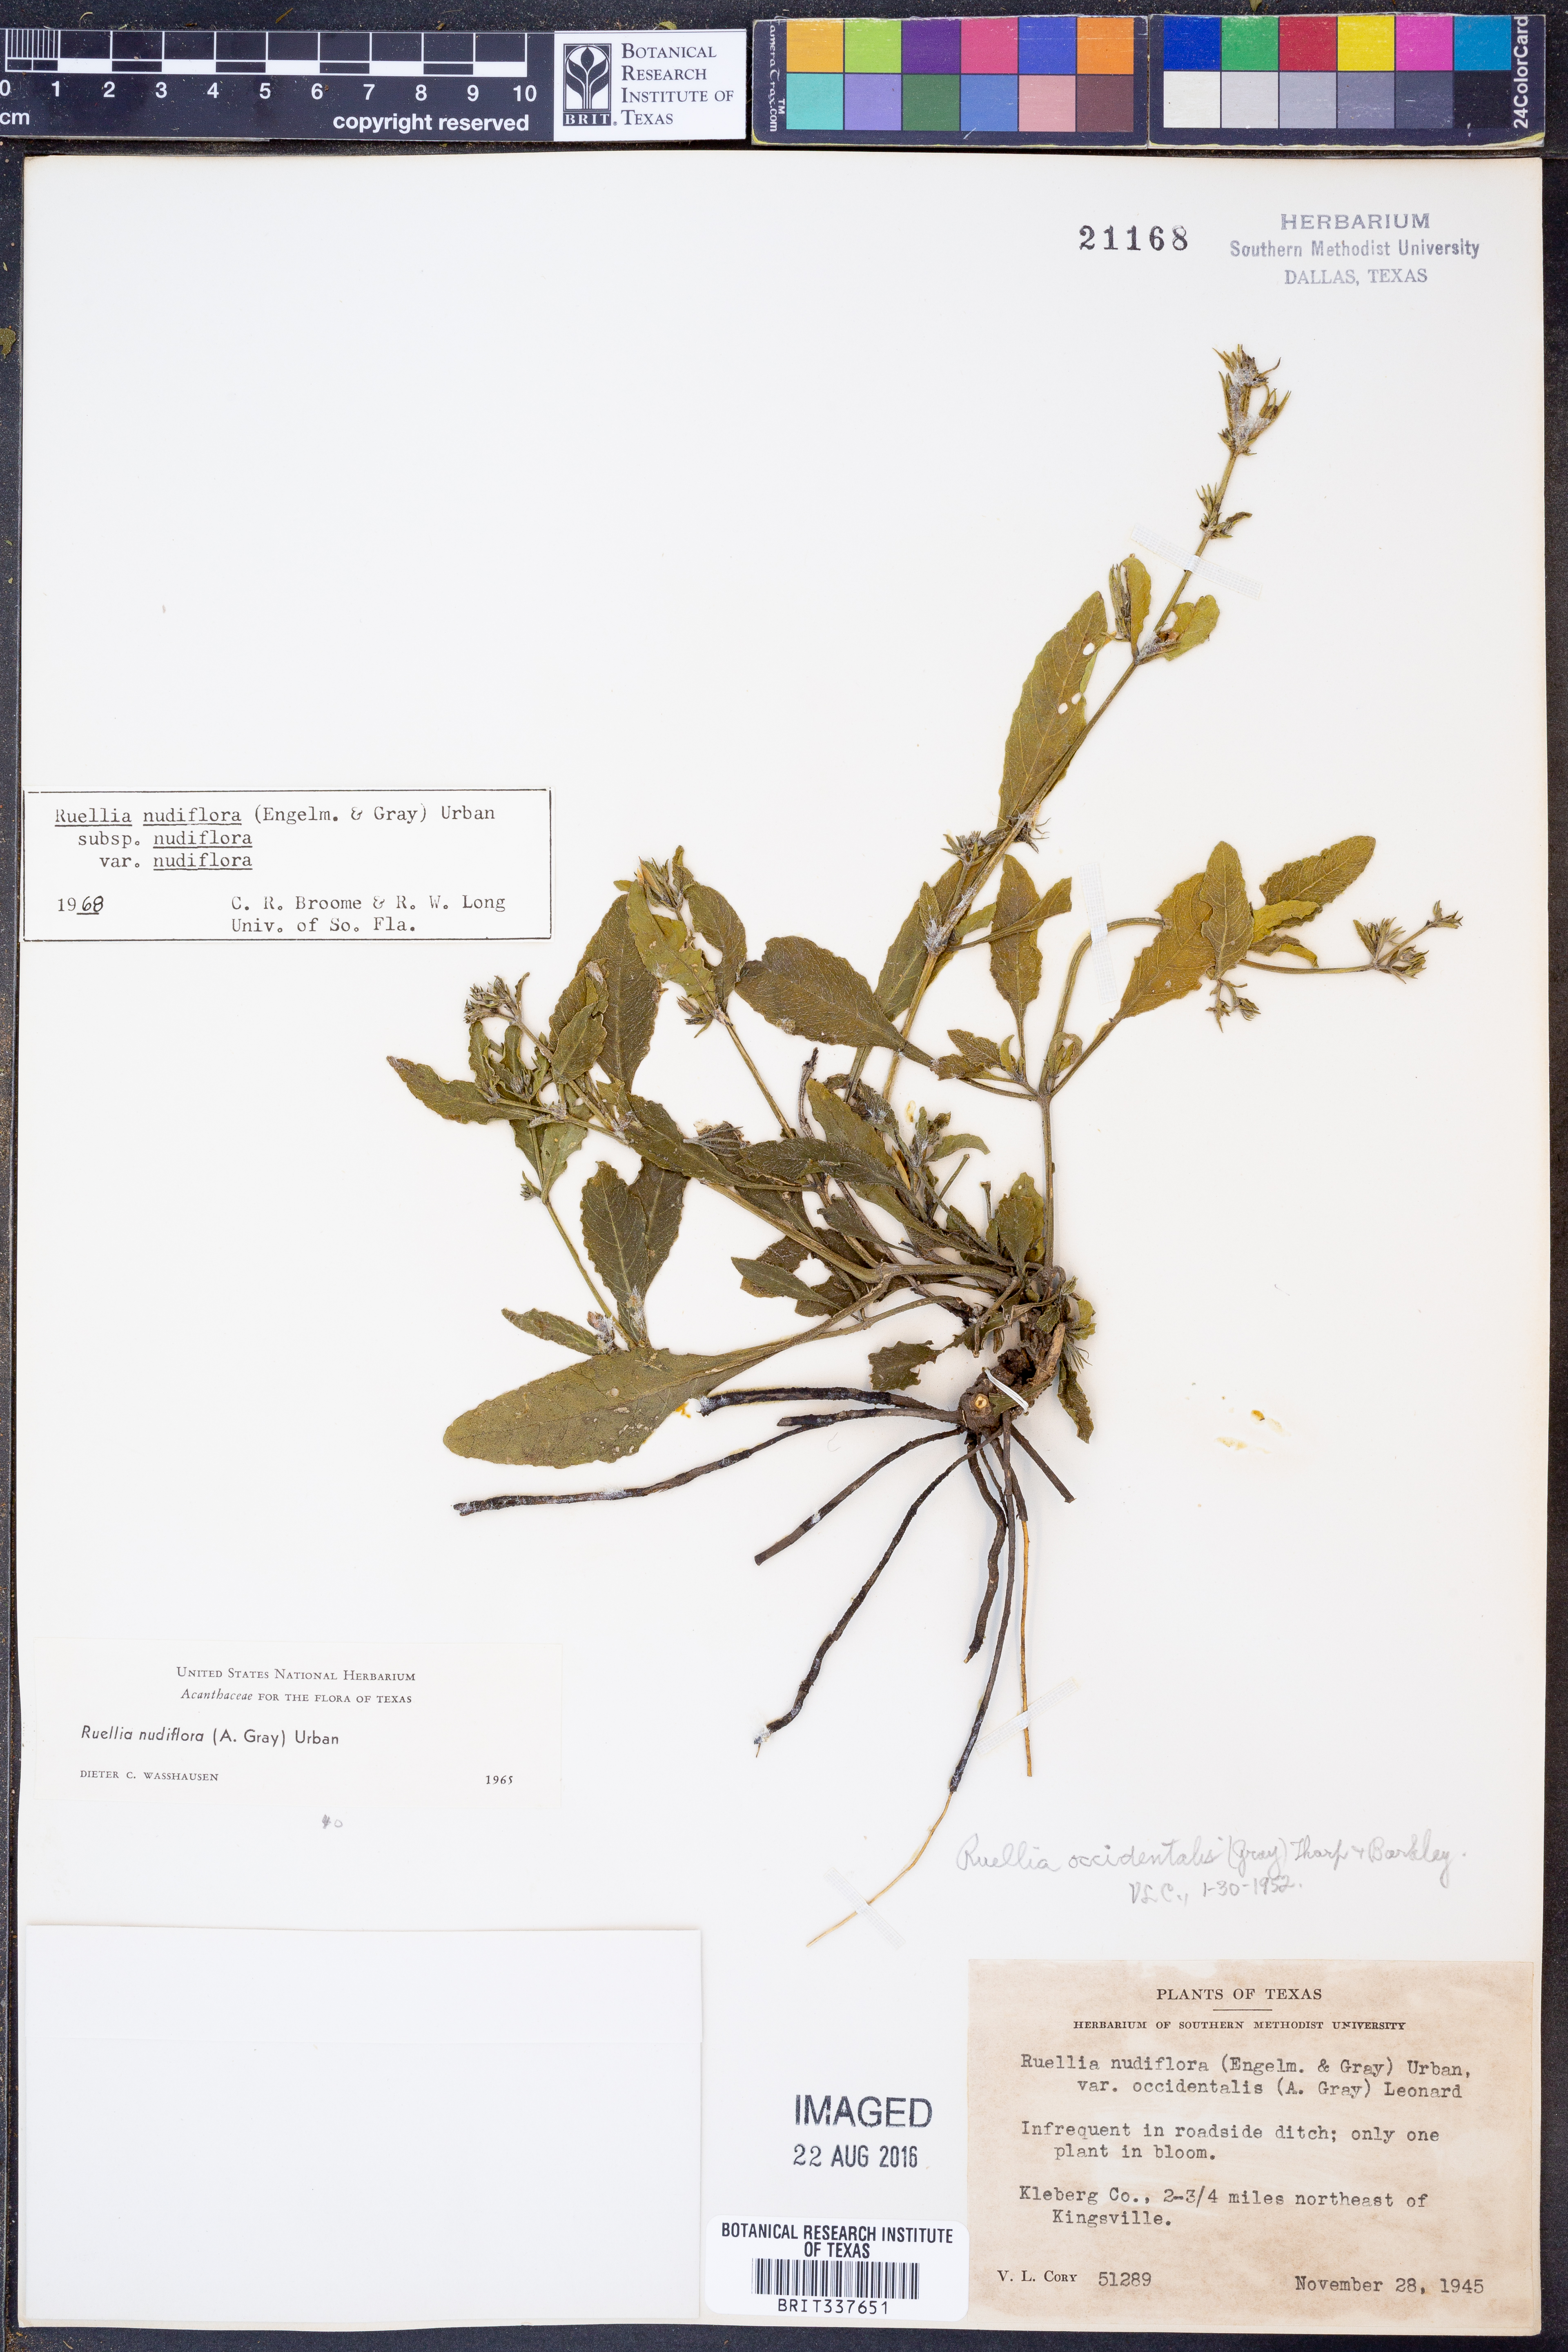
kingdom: Plantae
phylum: Tracheophyta
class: Magnoliopsida
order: Lamiales
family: Acanthaceae
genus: Ruellia
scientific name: Ruellia ciliatiflora
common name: Hairyflower wild petunia
